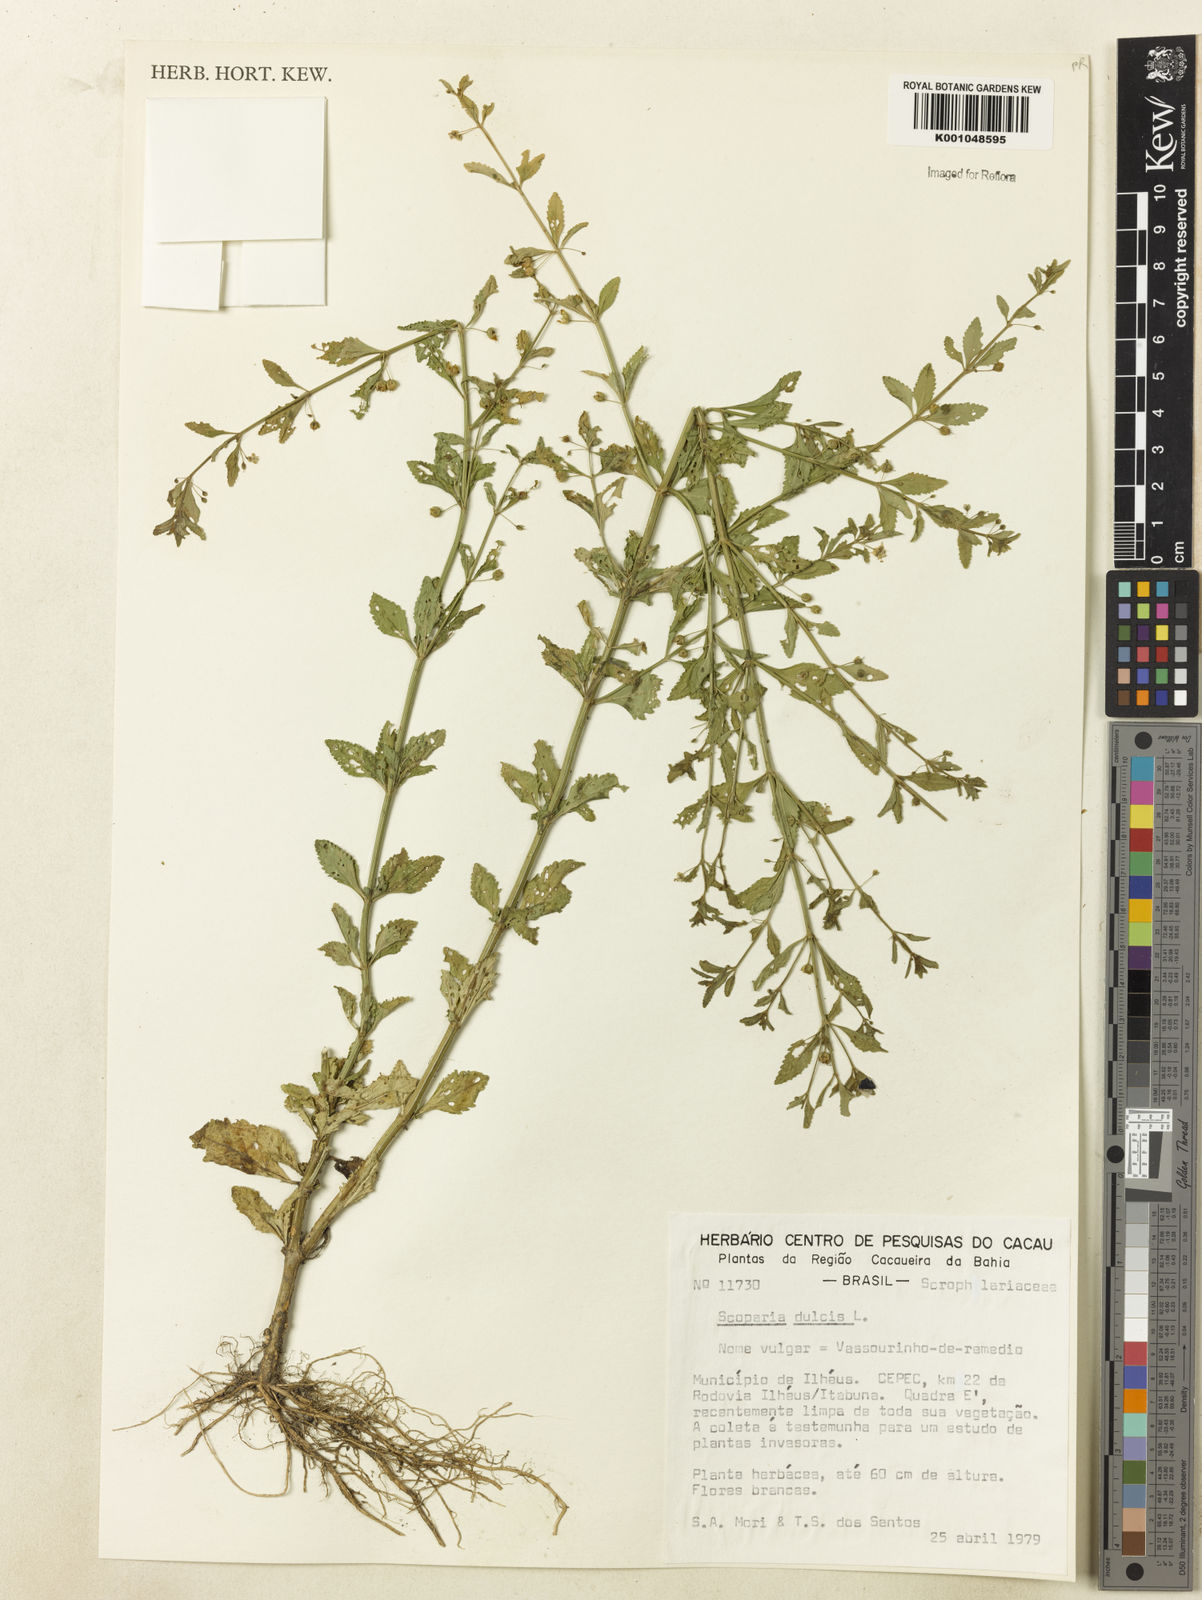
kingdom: Plantae
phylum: Tracheophyta
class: Magnoliopsida
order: Lamiales
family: Plantaginaceae
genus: Scoparia
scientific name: Scoparia dulcis
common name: Scoparia-weed
